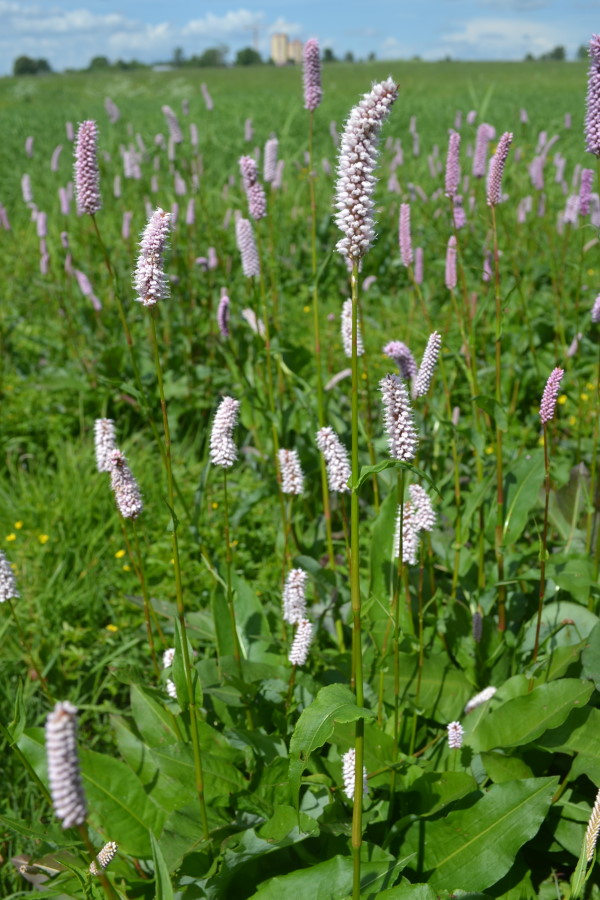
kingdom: Plantae
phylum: Tracheophyta
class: Magnoliopsida
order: Caryophyllales
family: Polygonaceae
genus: Bistorta
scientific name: Bistorta officinalis
